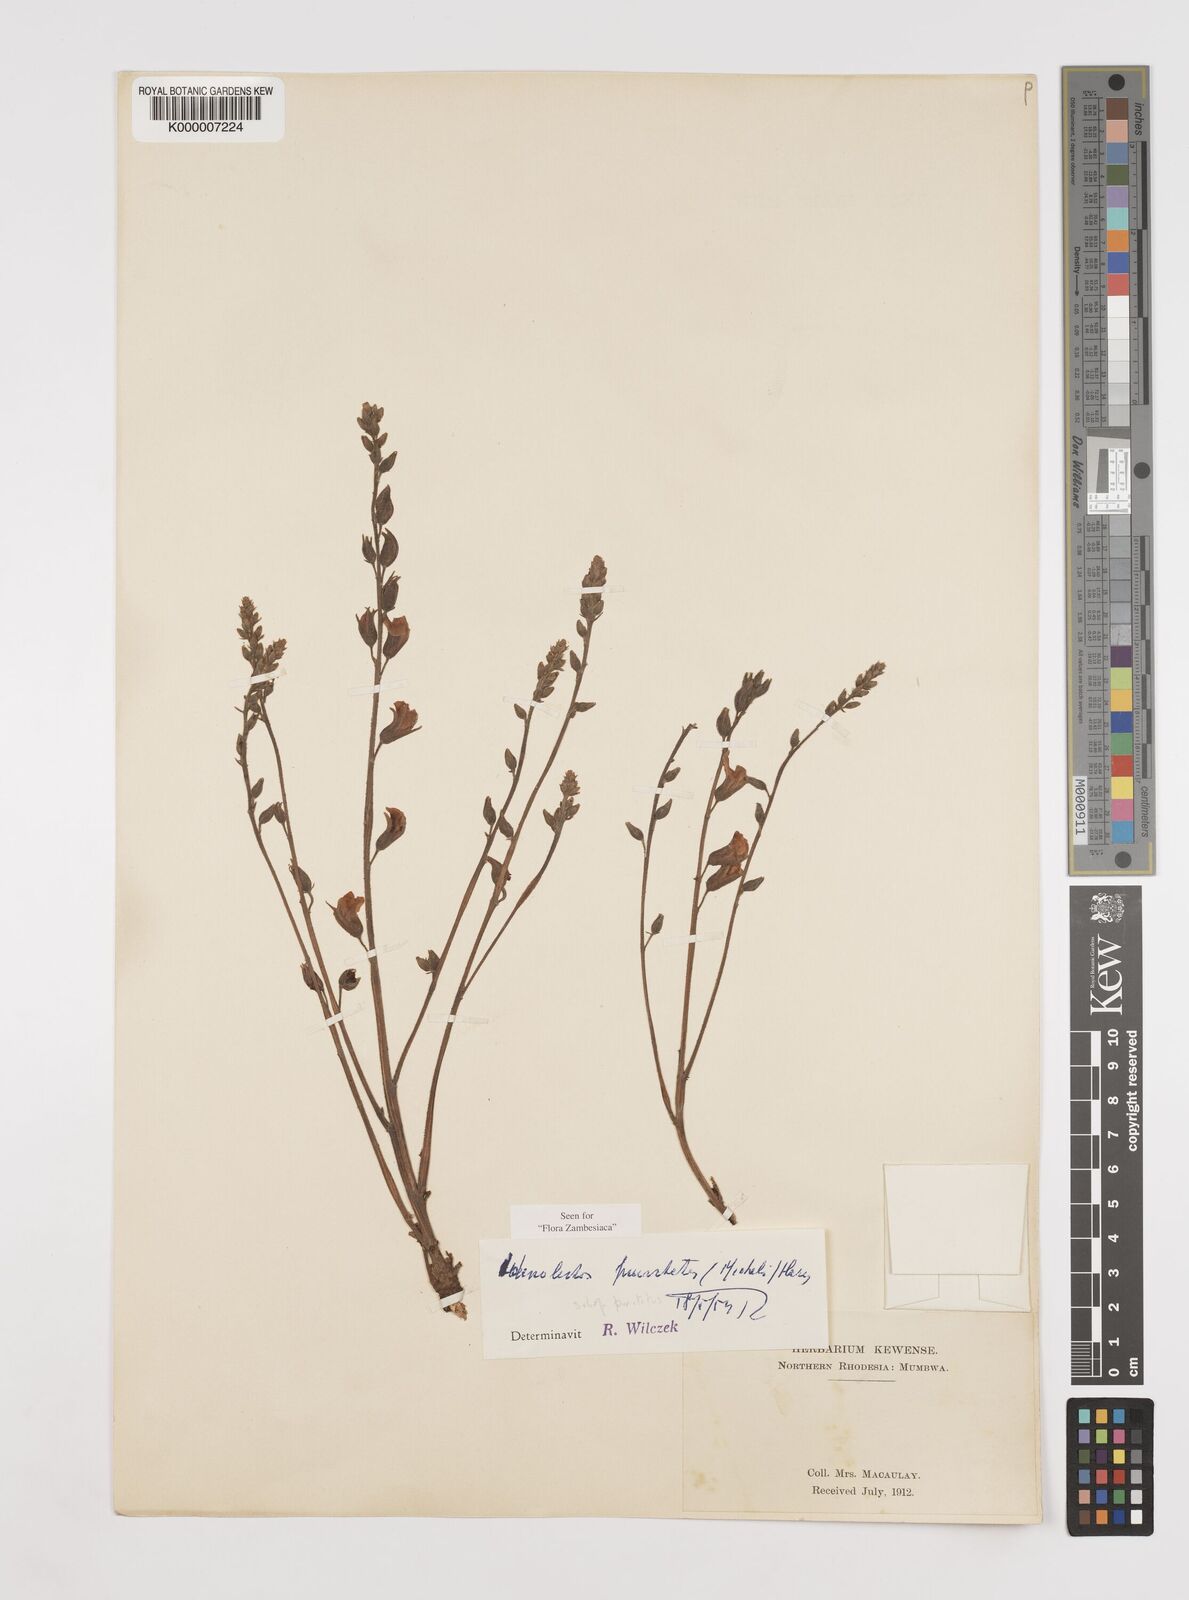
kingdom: Plantae
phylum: Tracheophyta
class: Magnoliopsida
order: Fabales
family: Fabaceae
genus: Adenodolichos
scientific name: Adenodolichos punctatus
